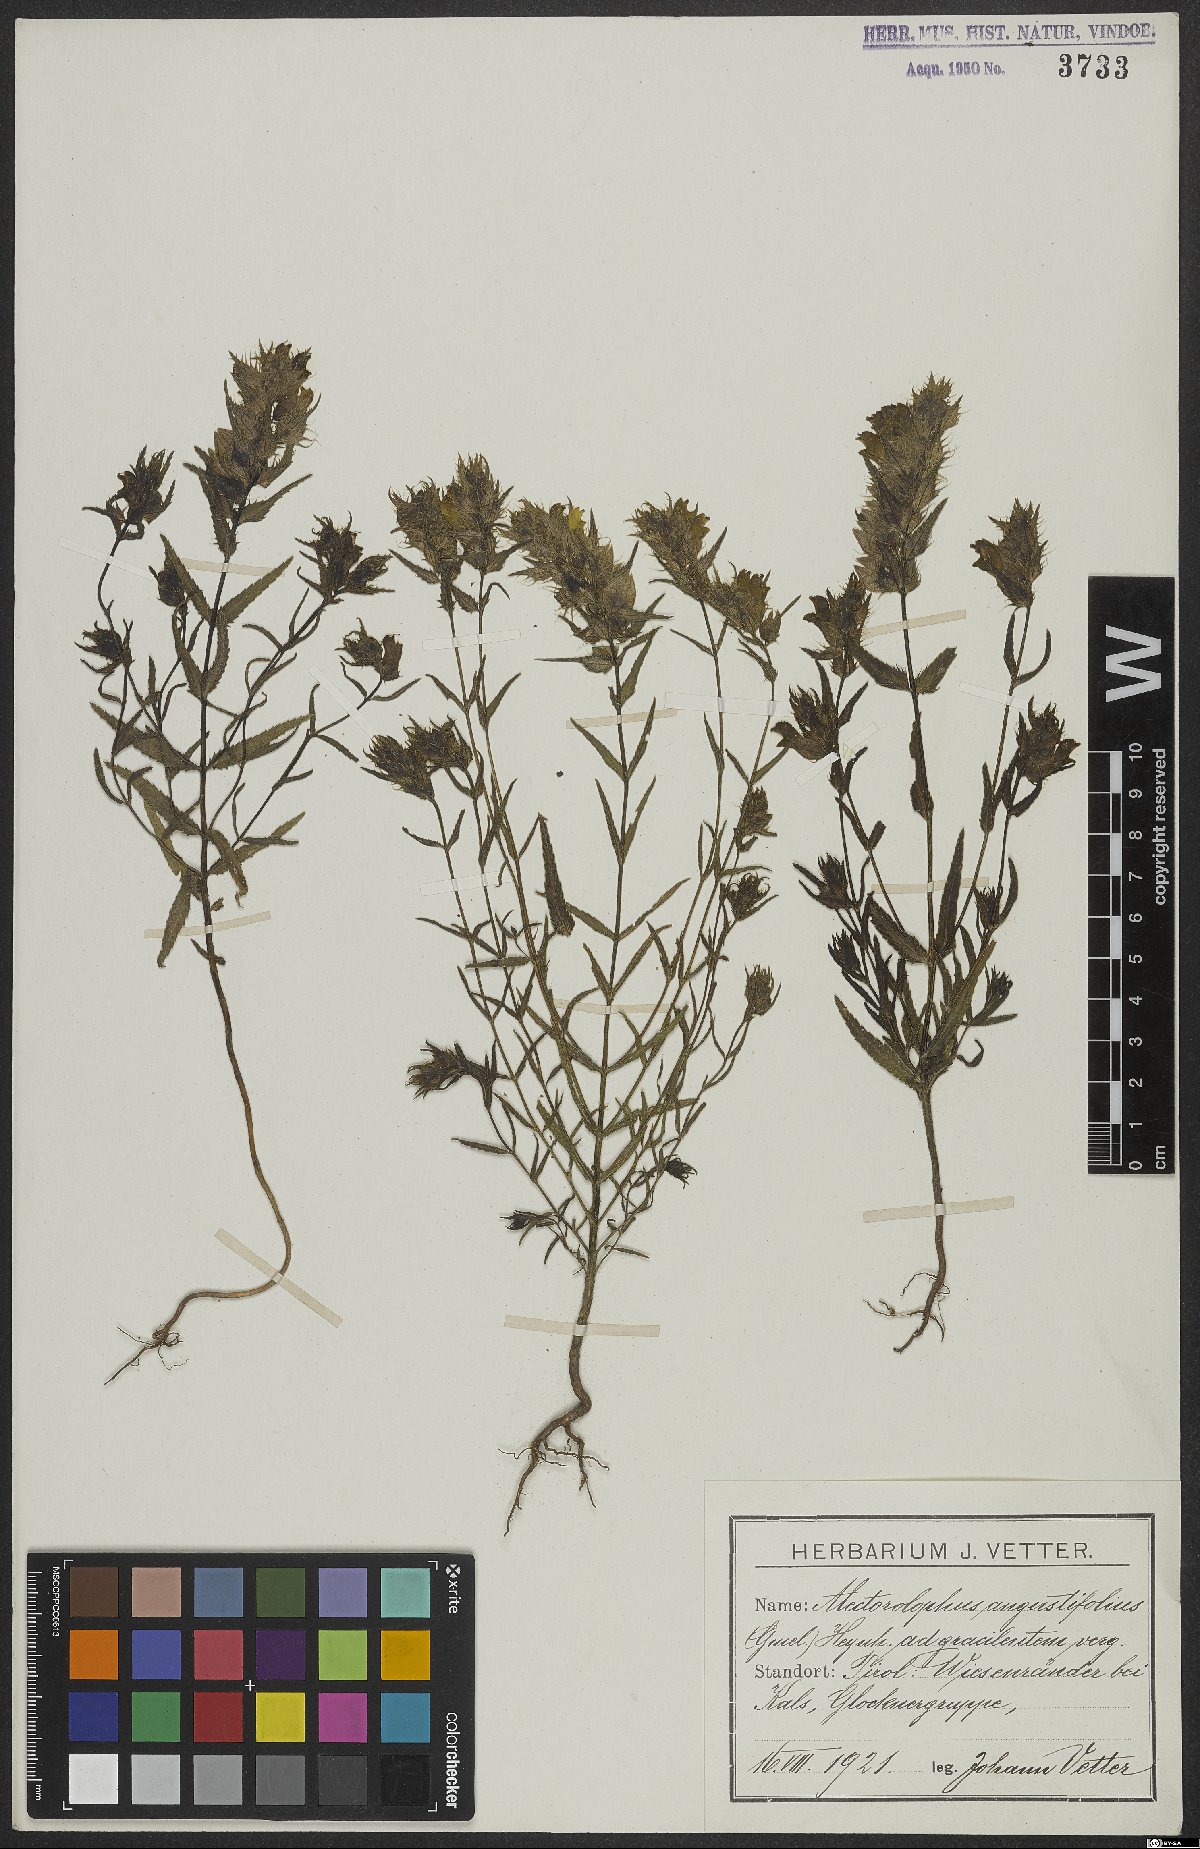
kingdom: Plantae
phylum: Tracheophyta
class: Magnoliopsida
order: Lamiales
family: Orobanchaceae
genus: Rhinanthus
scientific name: Rhinanthus glacialis
